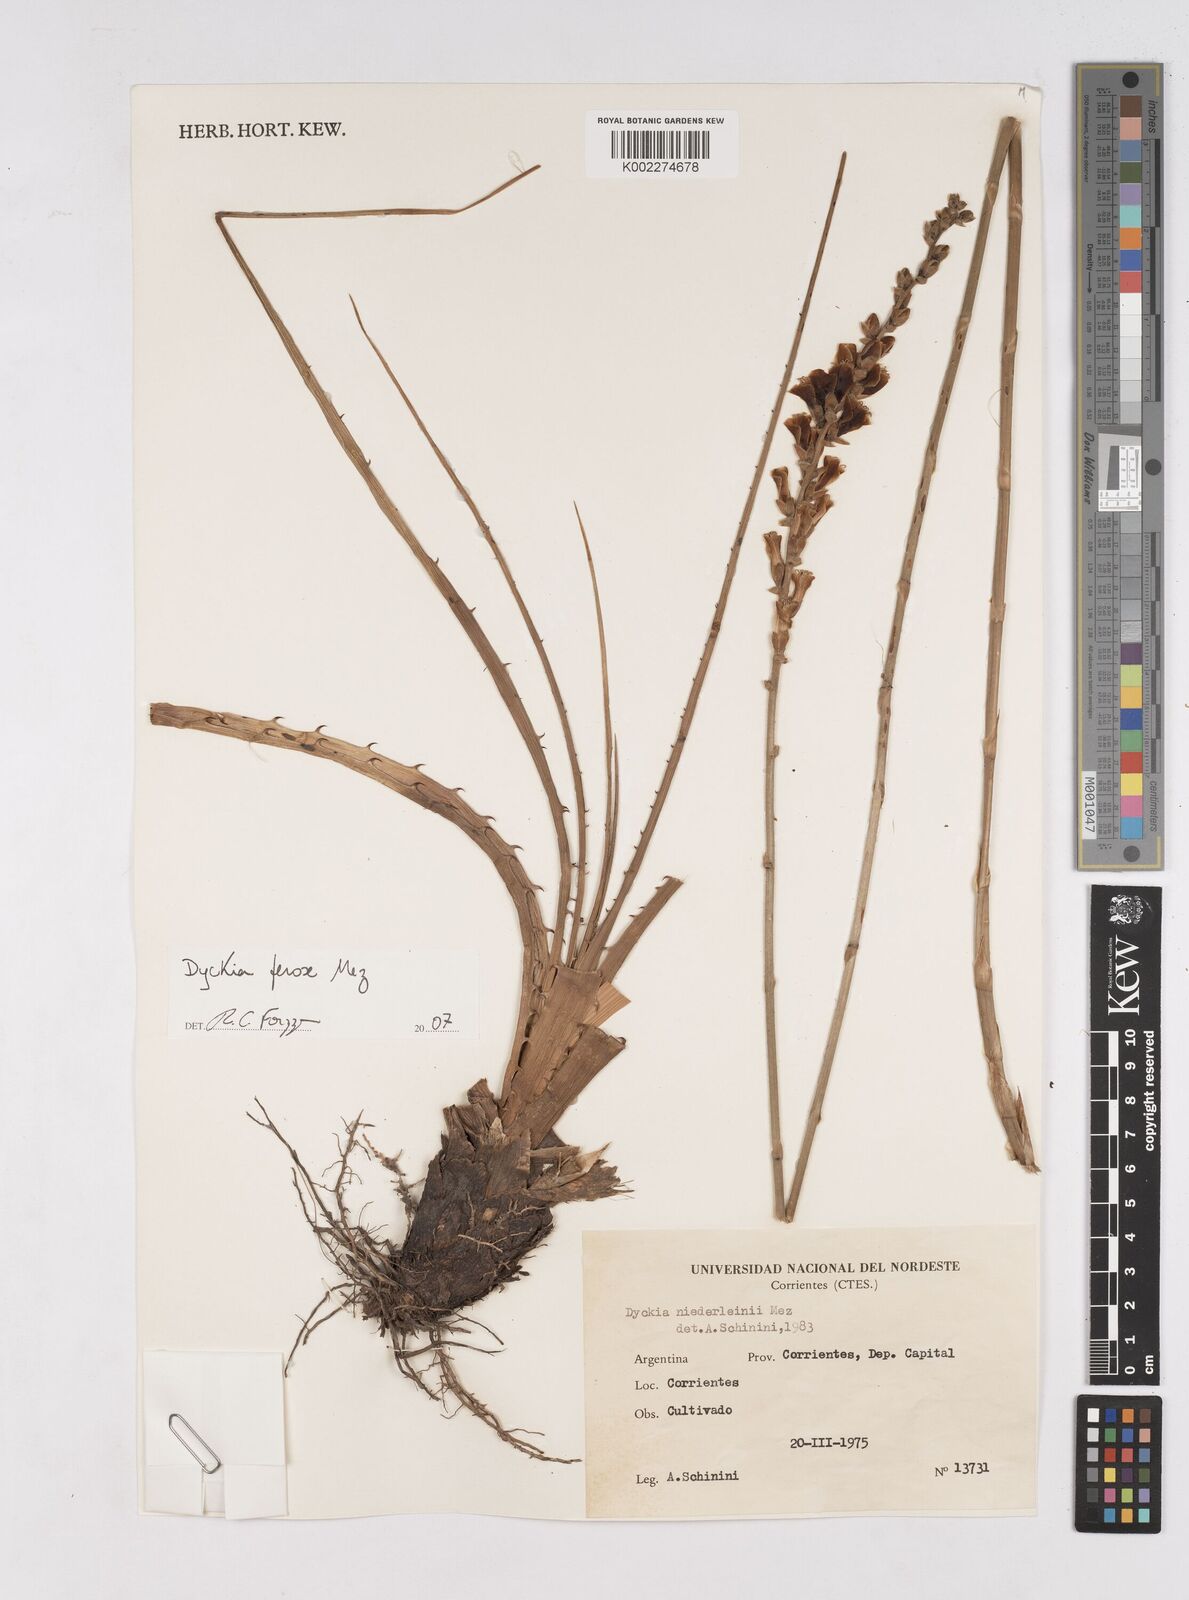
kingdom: Plantae
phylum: Tracheophyta
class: Liliopsida
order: Poales
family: Bromeliaceae
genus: Dyckia
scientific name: Dyckia ferox
